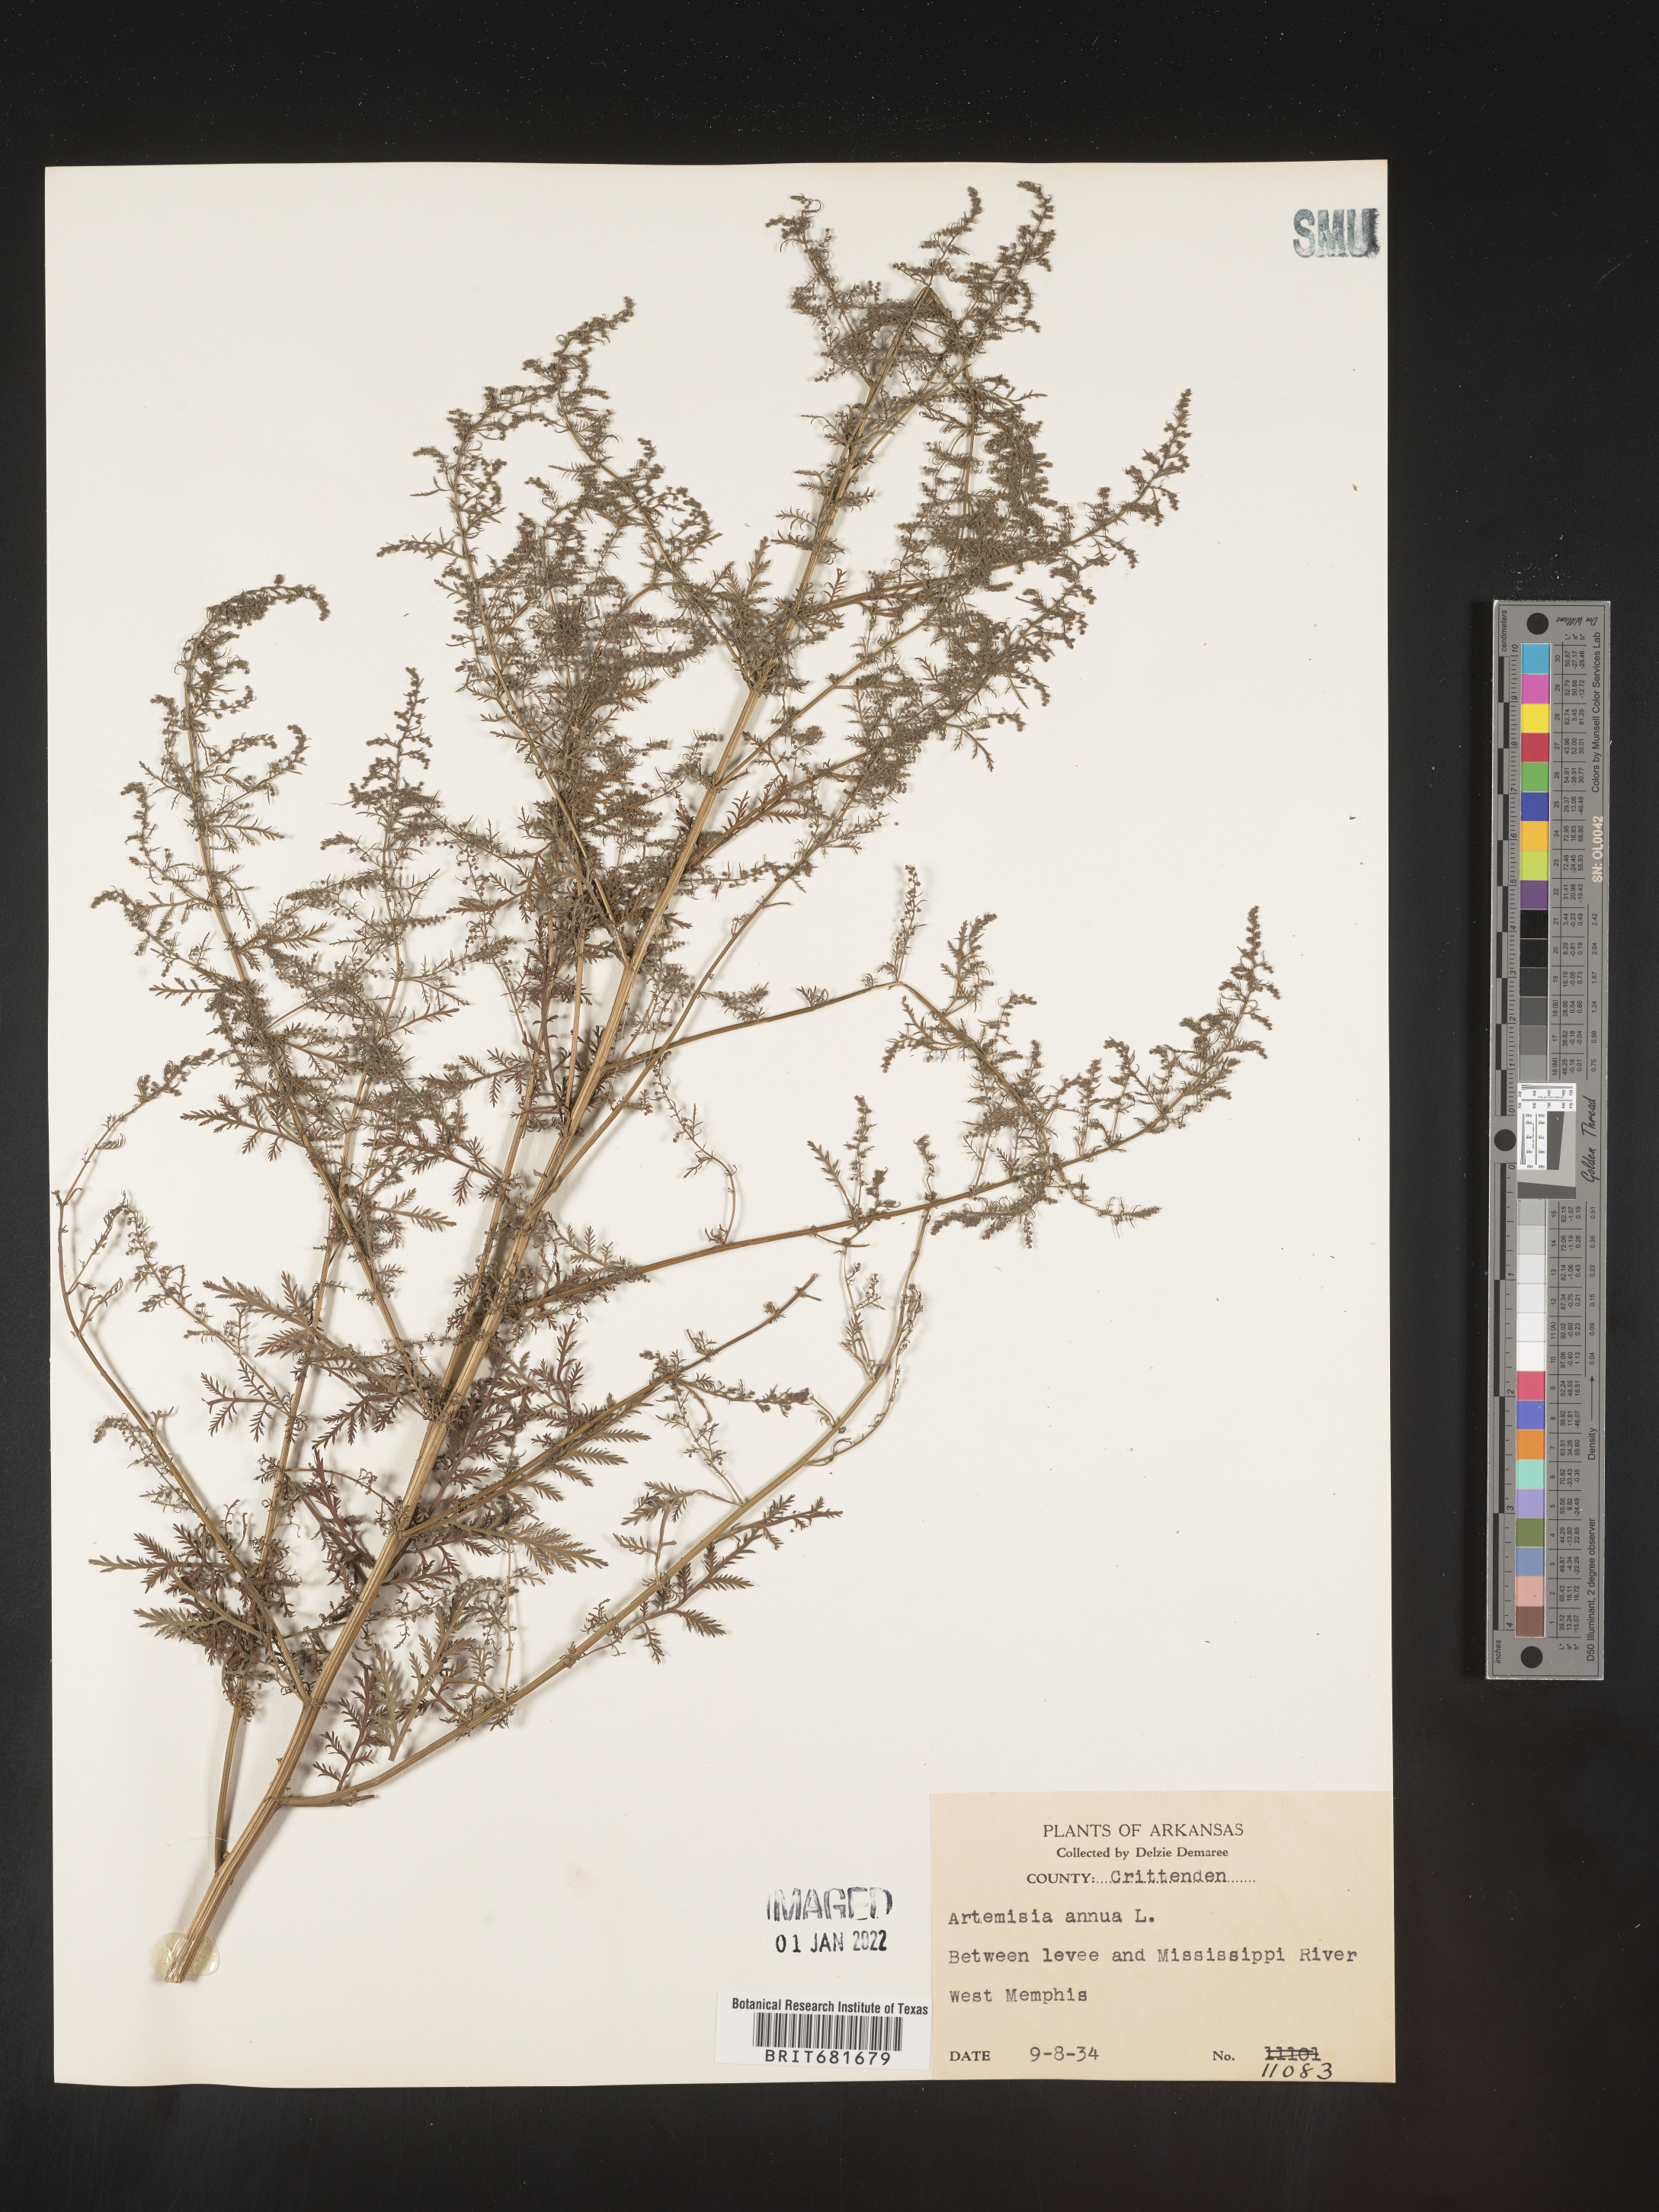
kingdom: Plantae
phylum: Tracheophyta
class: Magnoliopsida
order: Asterales
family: Asteraceae
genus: Artemisia
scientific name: Artemisia annua
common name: Sweet sagewort
